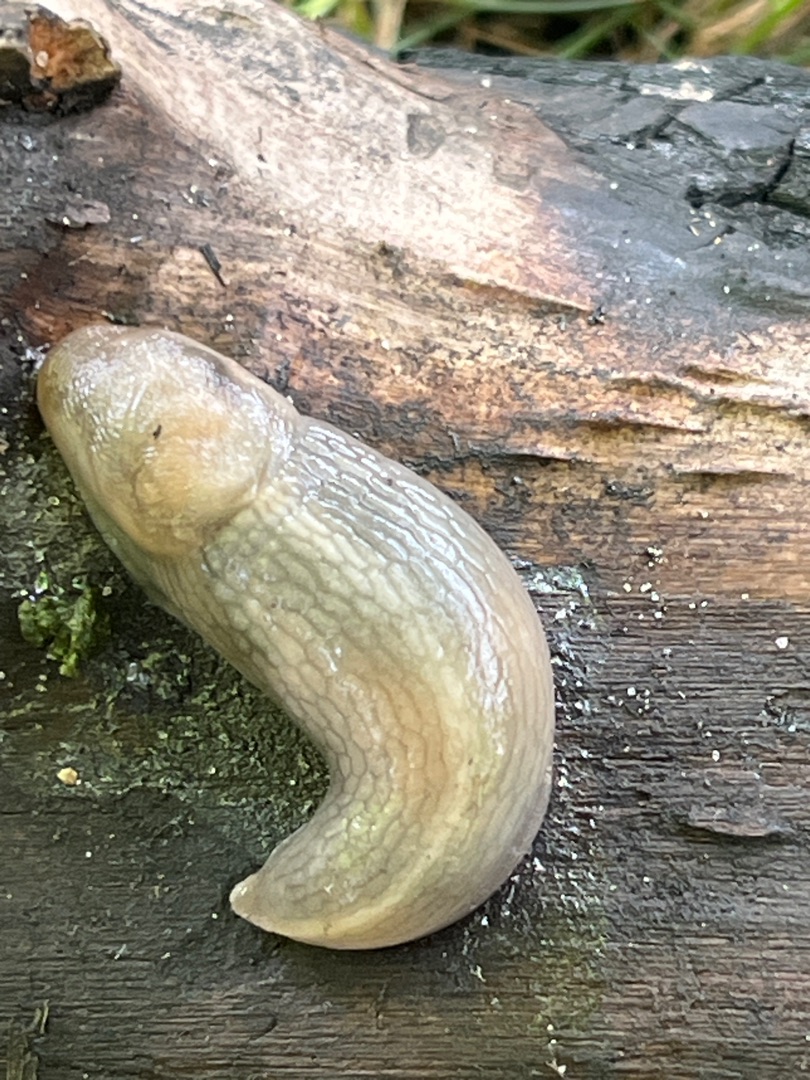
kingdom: Animalia
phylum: Mollusca
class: Gastropoda
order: Stylommatophora
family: Limacidae
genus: Lehmannia
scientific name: Lehmannia marginata
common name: Bøgesnegl
